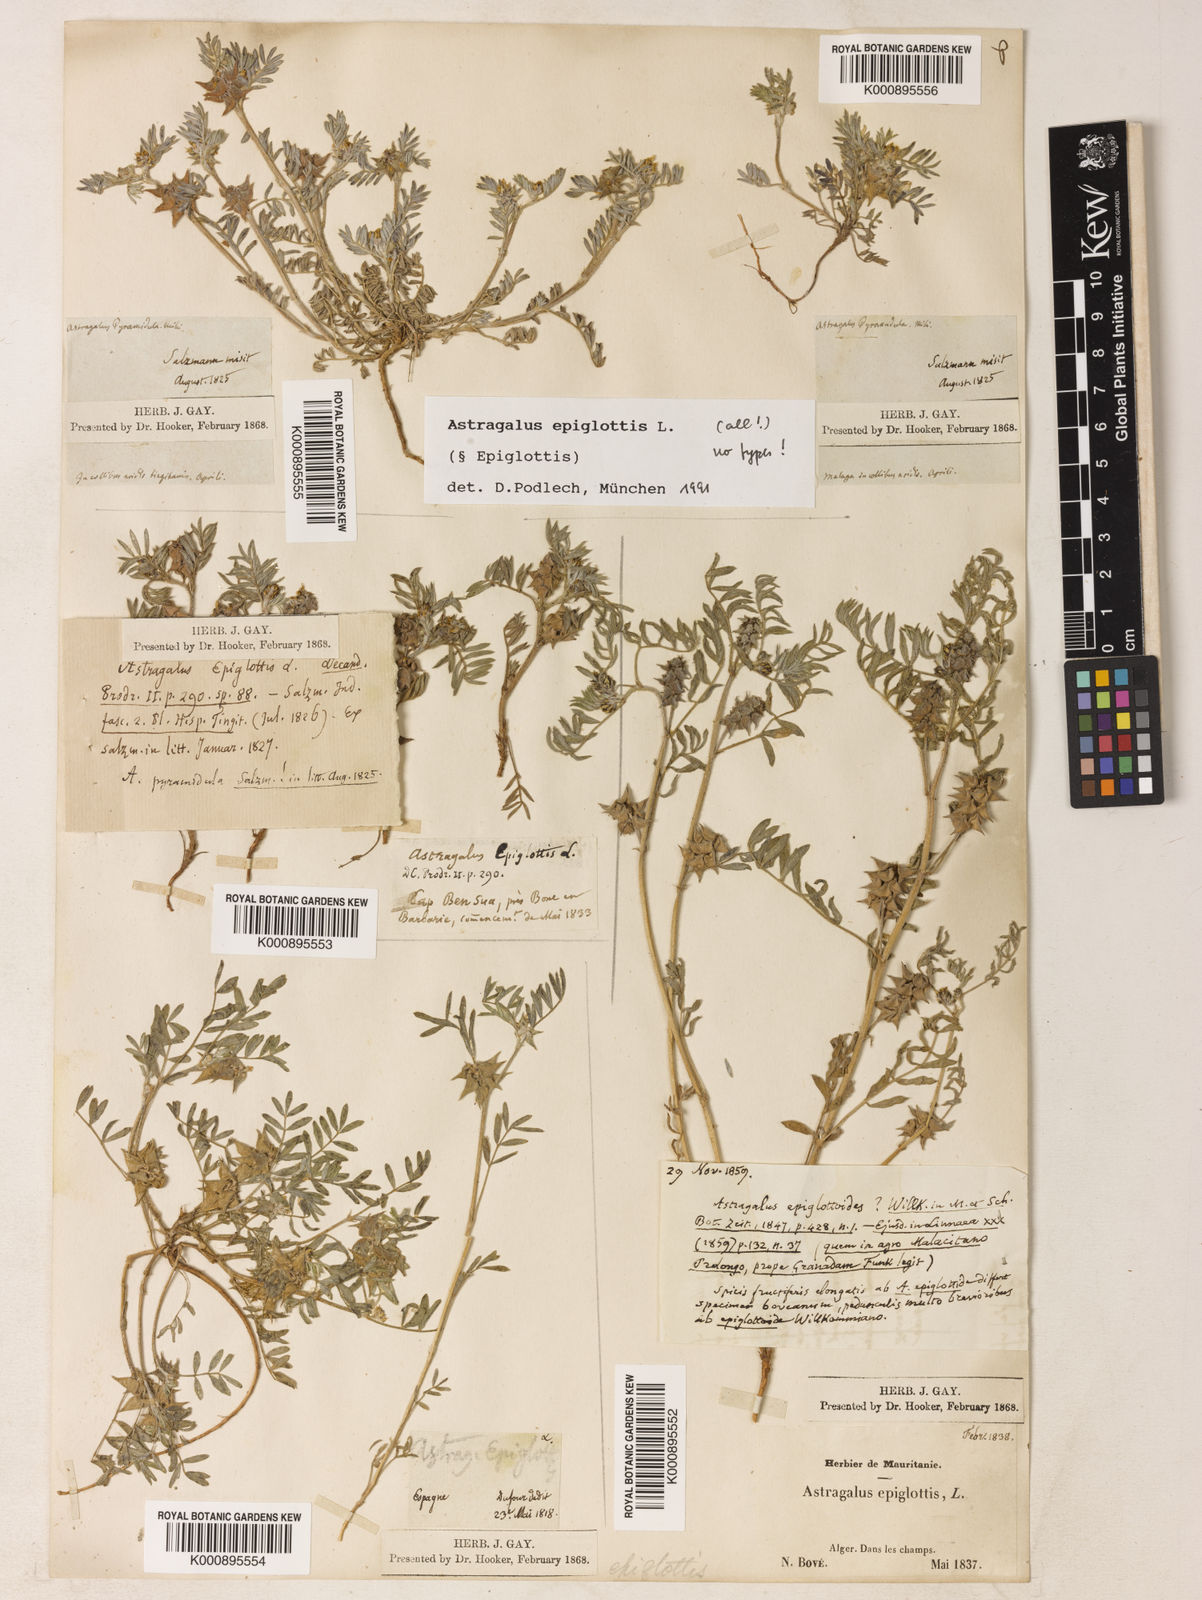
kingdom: Plantae
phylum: Tracheophyta
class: Magnoliopsida
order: Fabales
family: Fabaceae
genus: Biserrula
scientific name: Biserrula epiglottis
